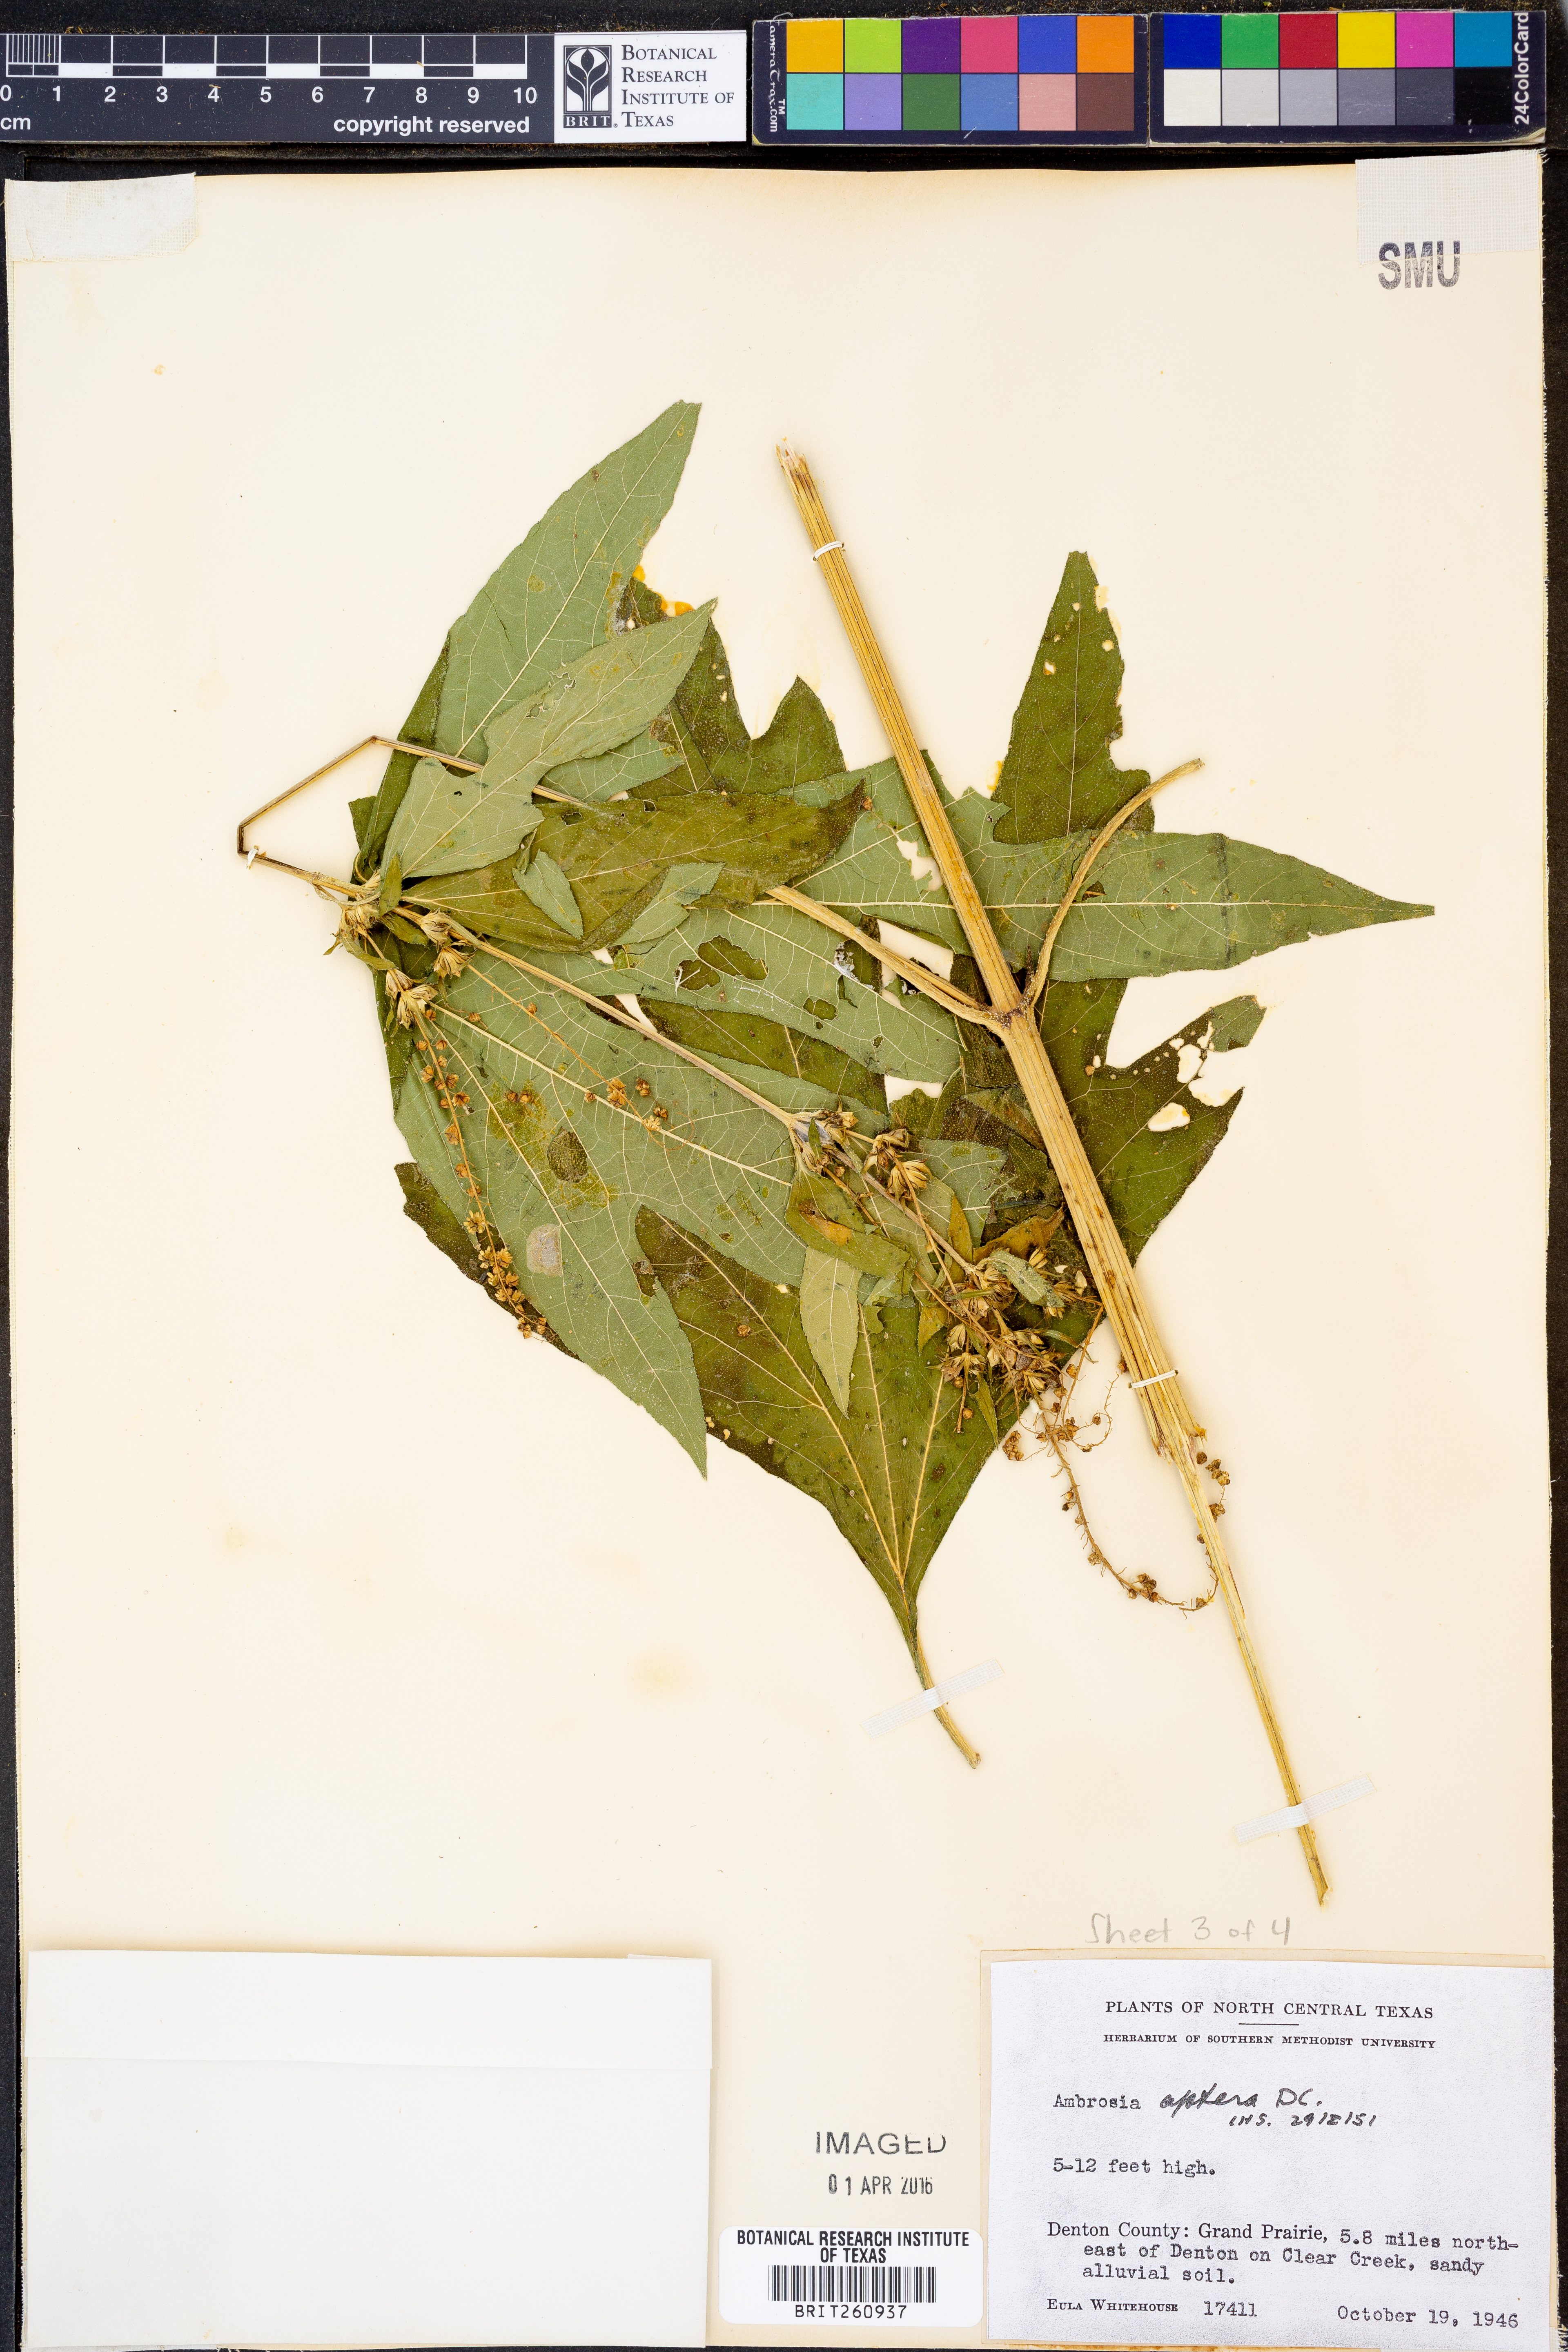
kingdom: Plantae
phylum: Tracheophyta
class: Magnoliopsida
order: Asterales
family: Asteraceae
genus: Ambrosia
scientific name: Ambrosia trifida
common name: Giant ragweed
